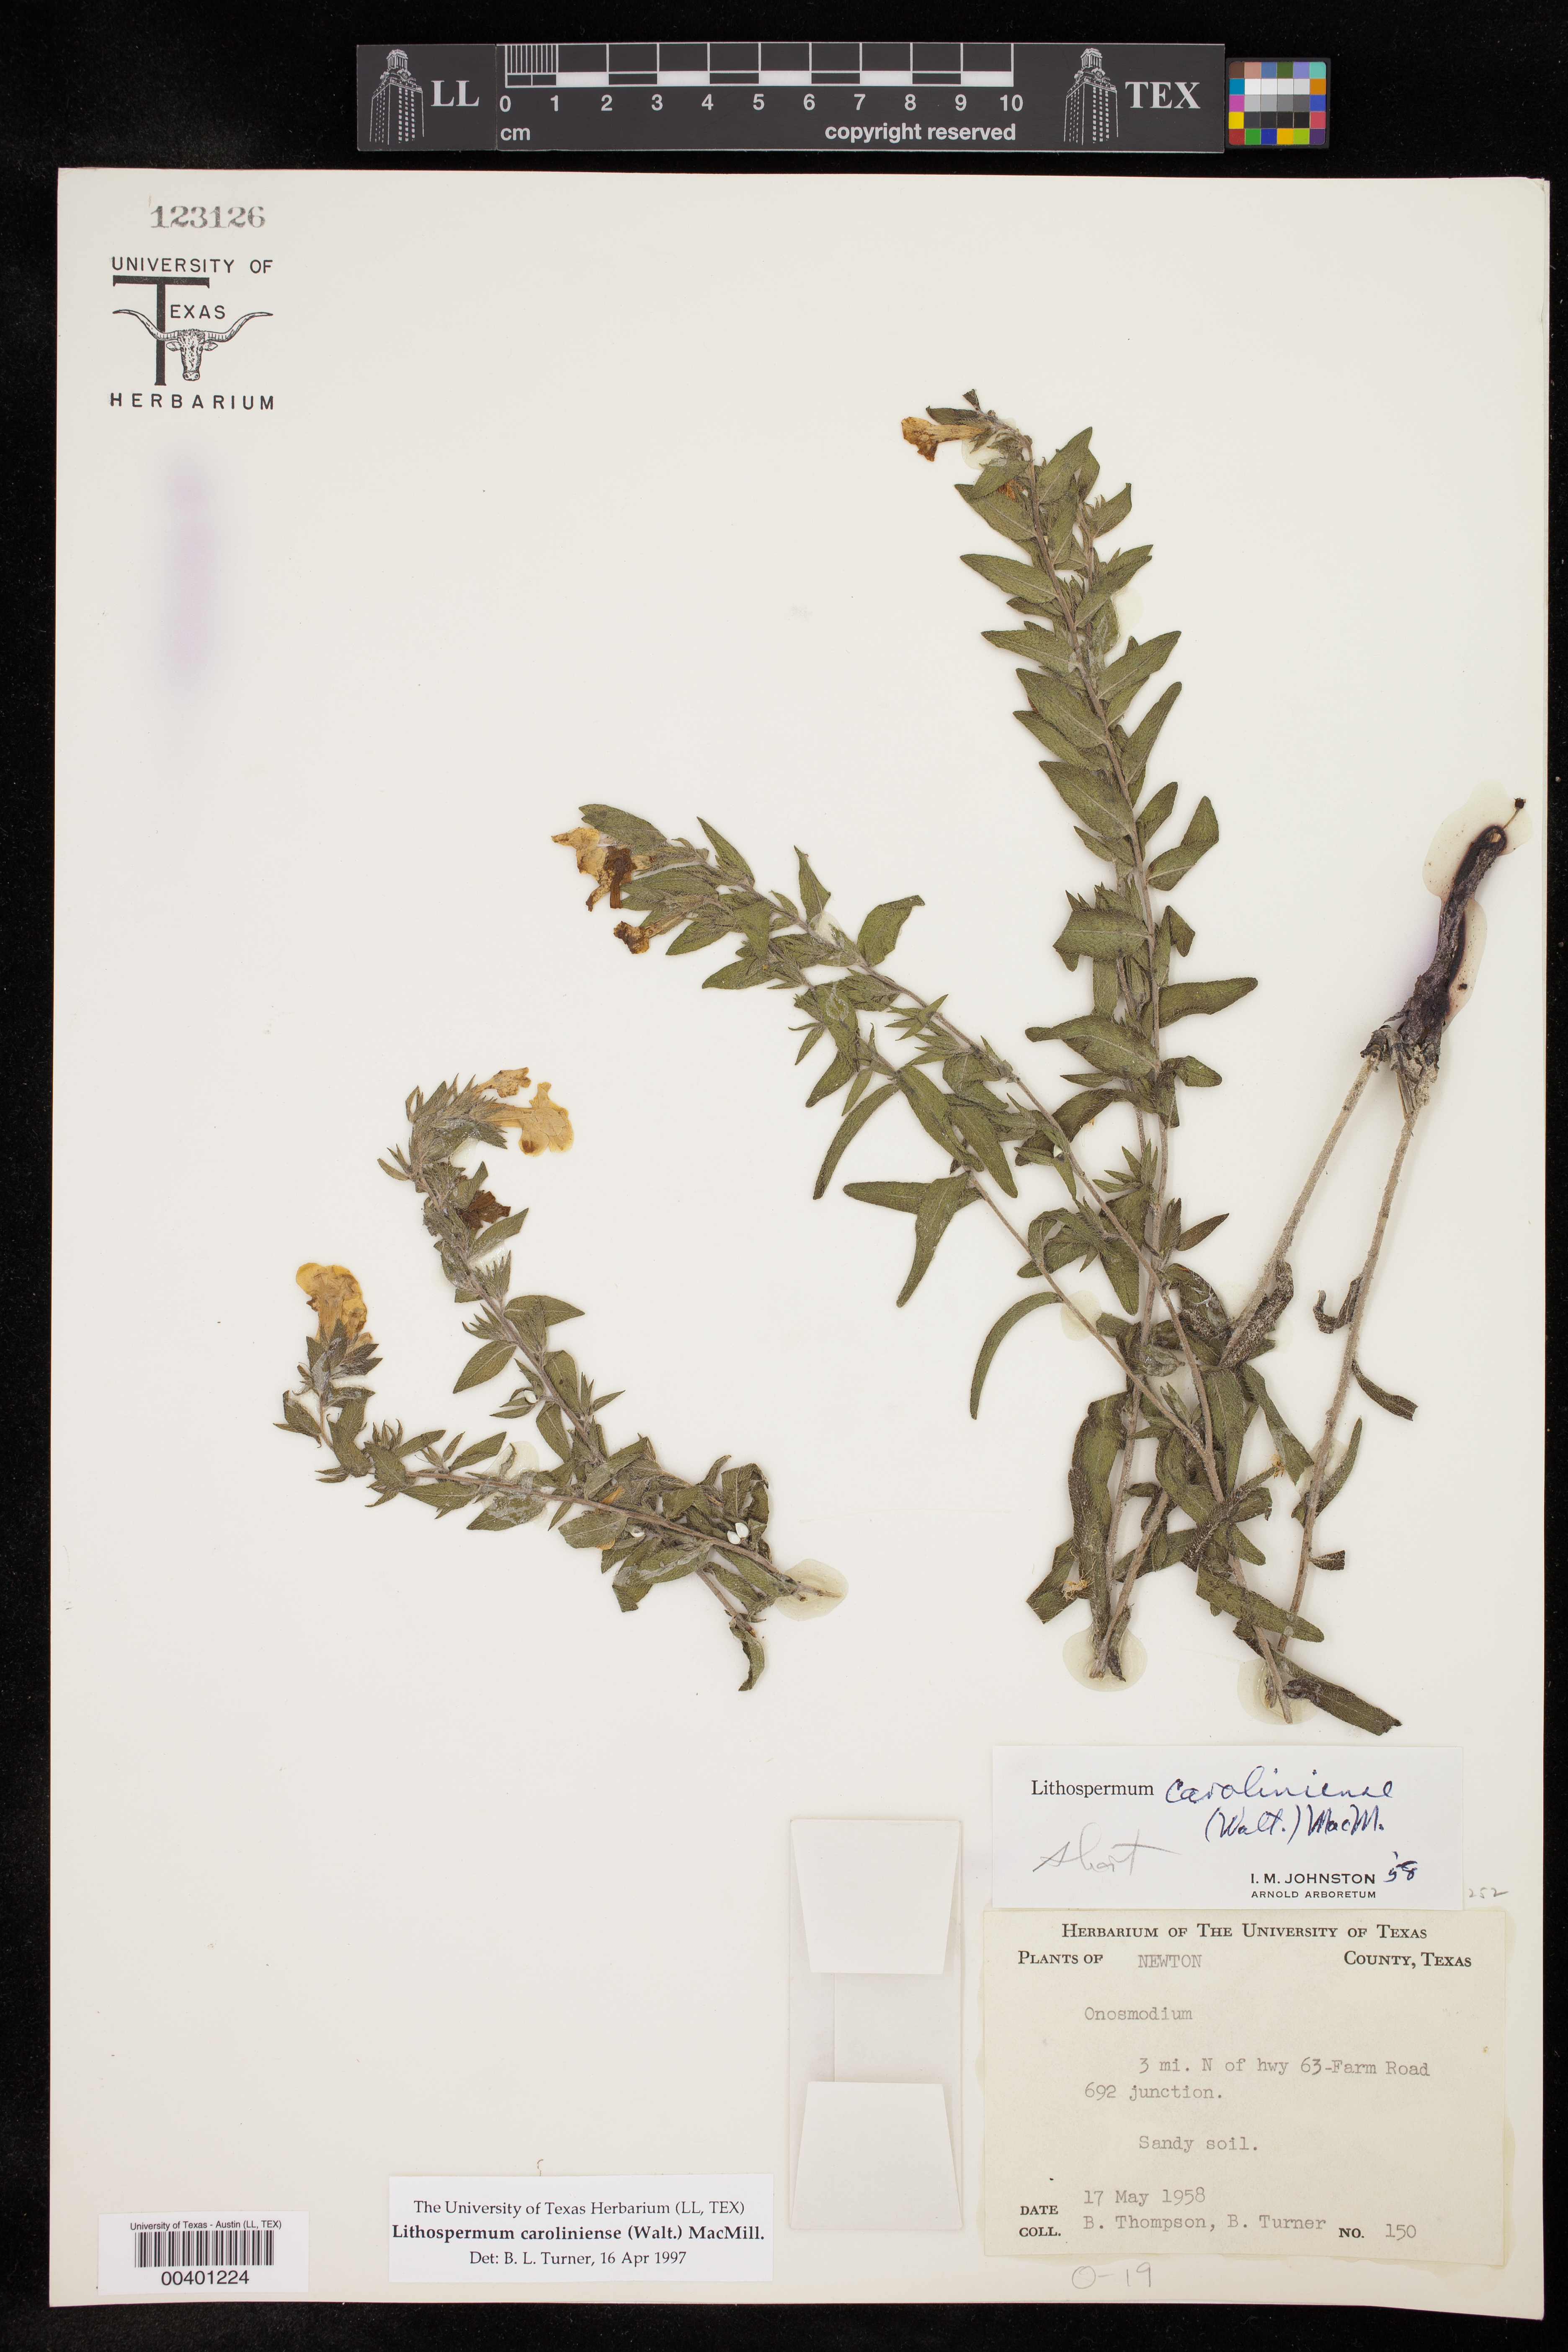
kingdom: Plantae
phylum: Tracheophyta
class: Magnoliopsida
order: Boraginales
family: Boraginaceae
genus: Lithospermum
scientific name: Lithospermum caroliniense
